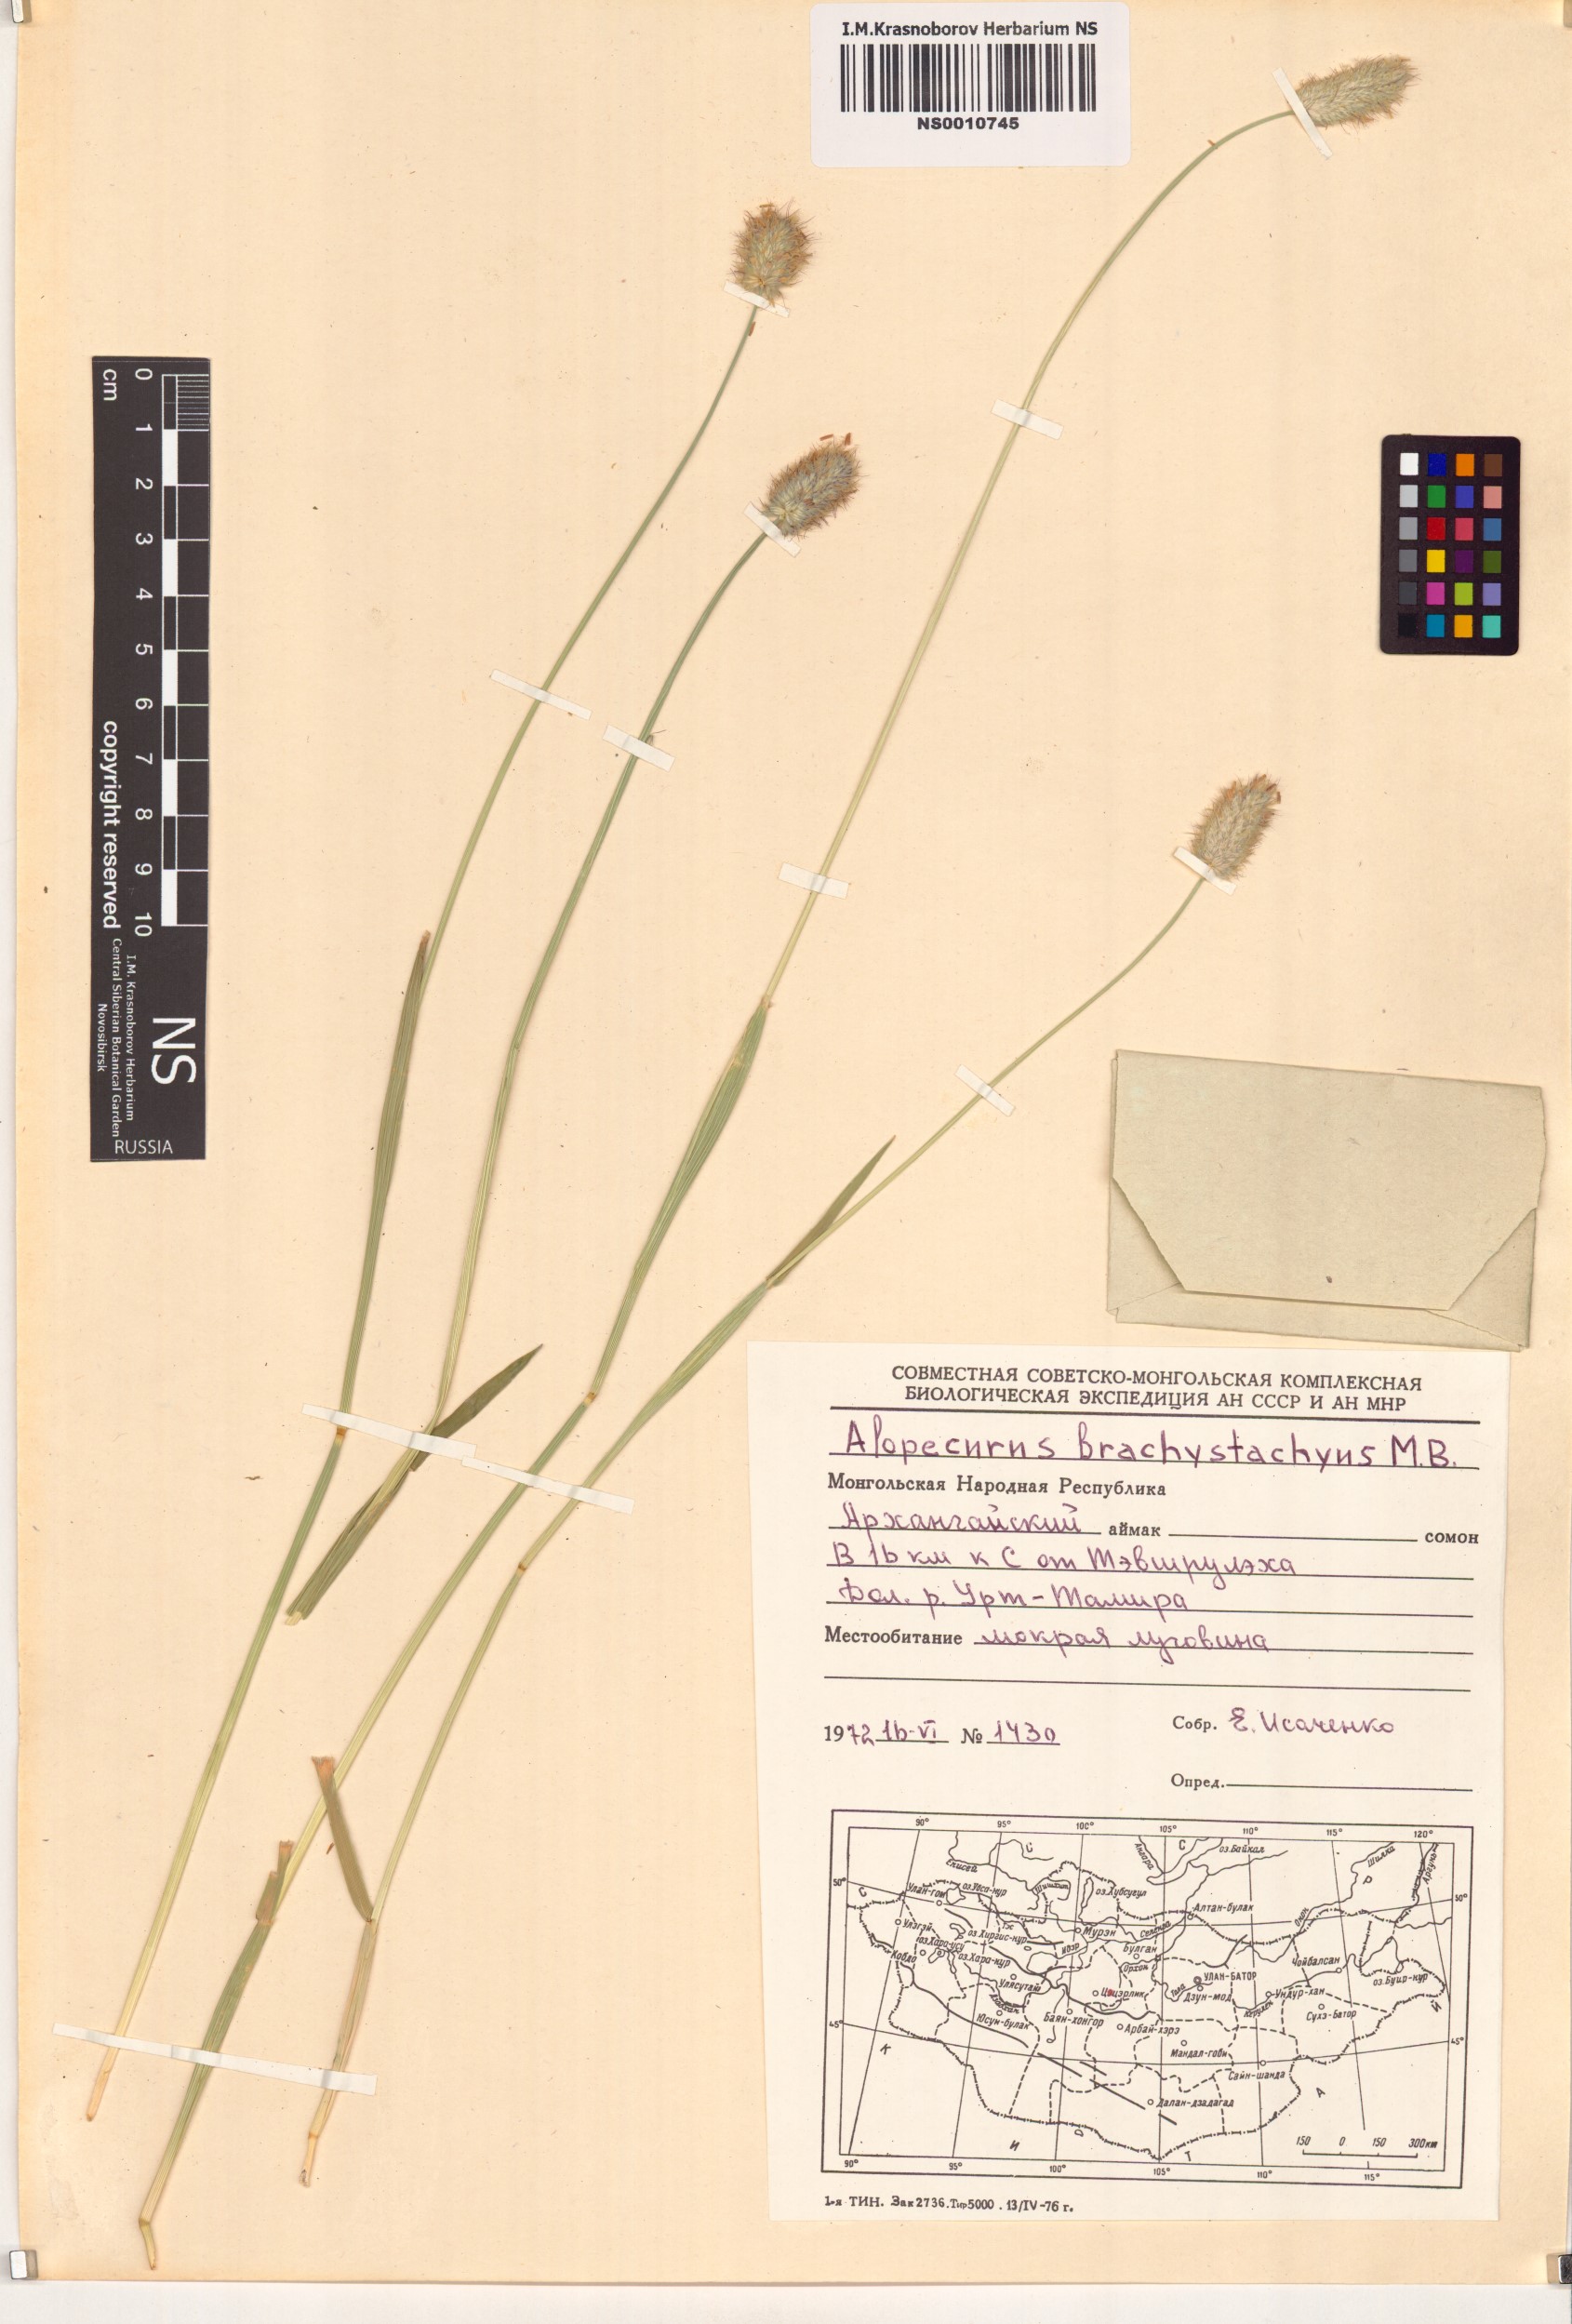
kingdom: Plantae
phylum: Tracheophyta
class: Liliopsida
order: Poales
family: Poaceae
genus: Alopecurus
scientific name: Alopecurus brachystachyus
